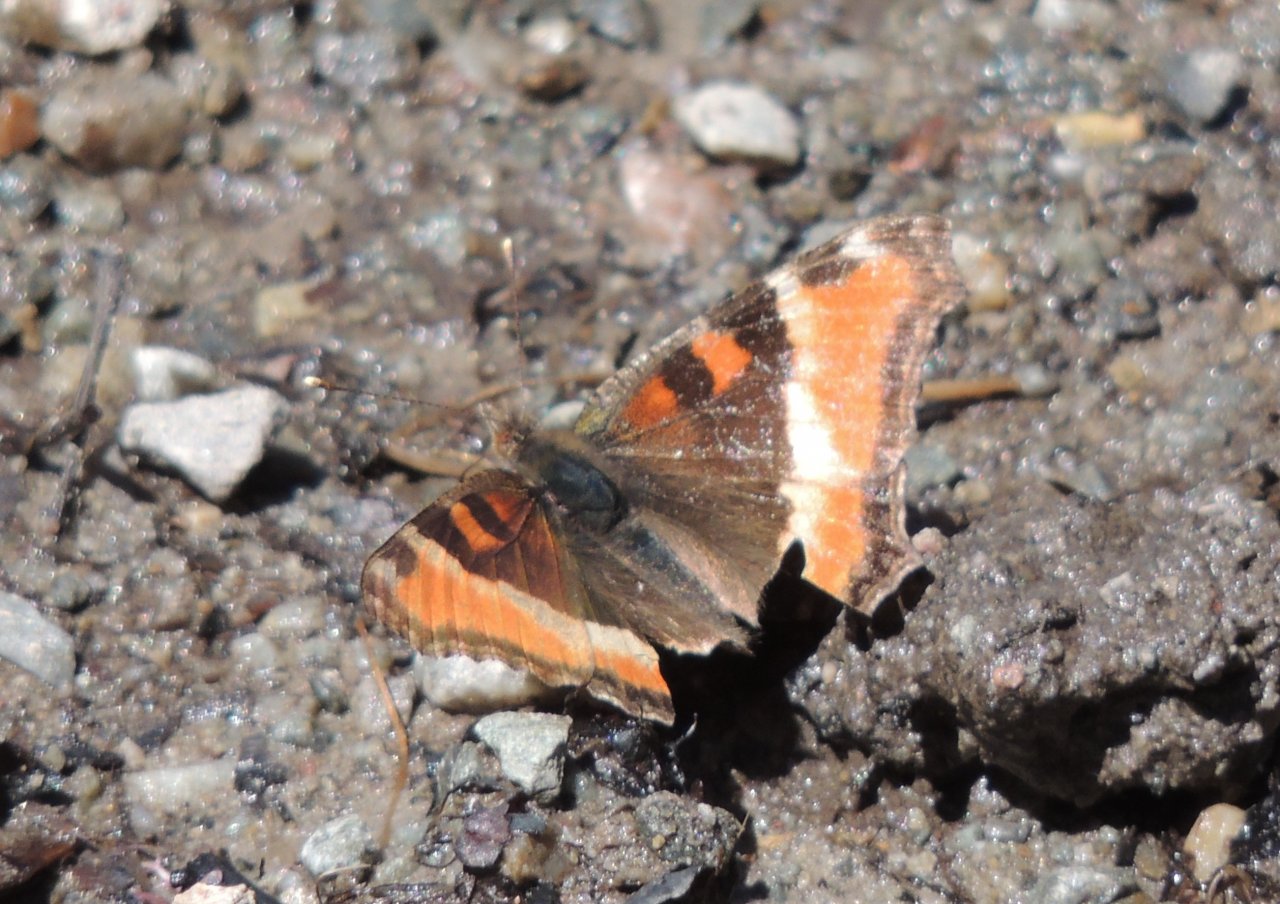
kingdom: Animalia
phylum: Arthropoda
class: Insecta
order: Lepidoptera
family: Nymphalidae
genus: Aglais
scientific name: Aglais milberti
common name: Milbert's Tortoiseshell
